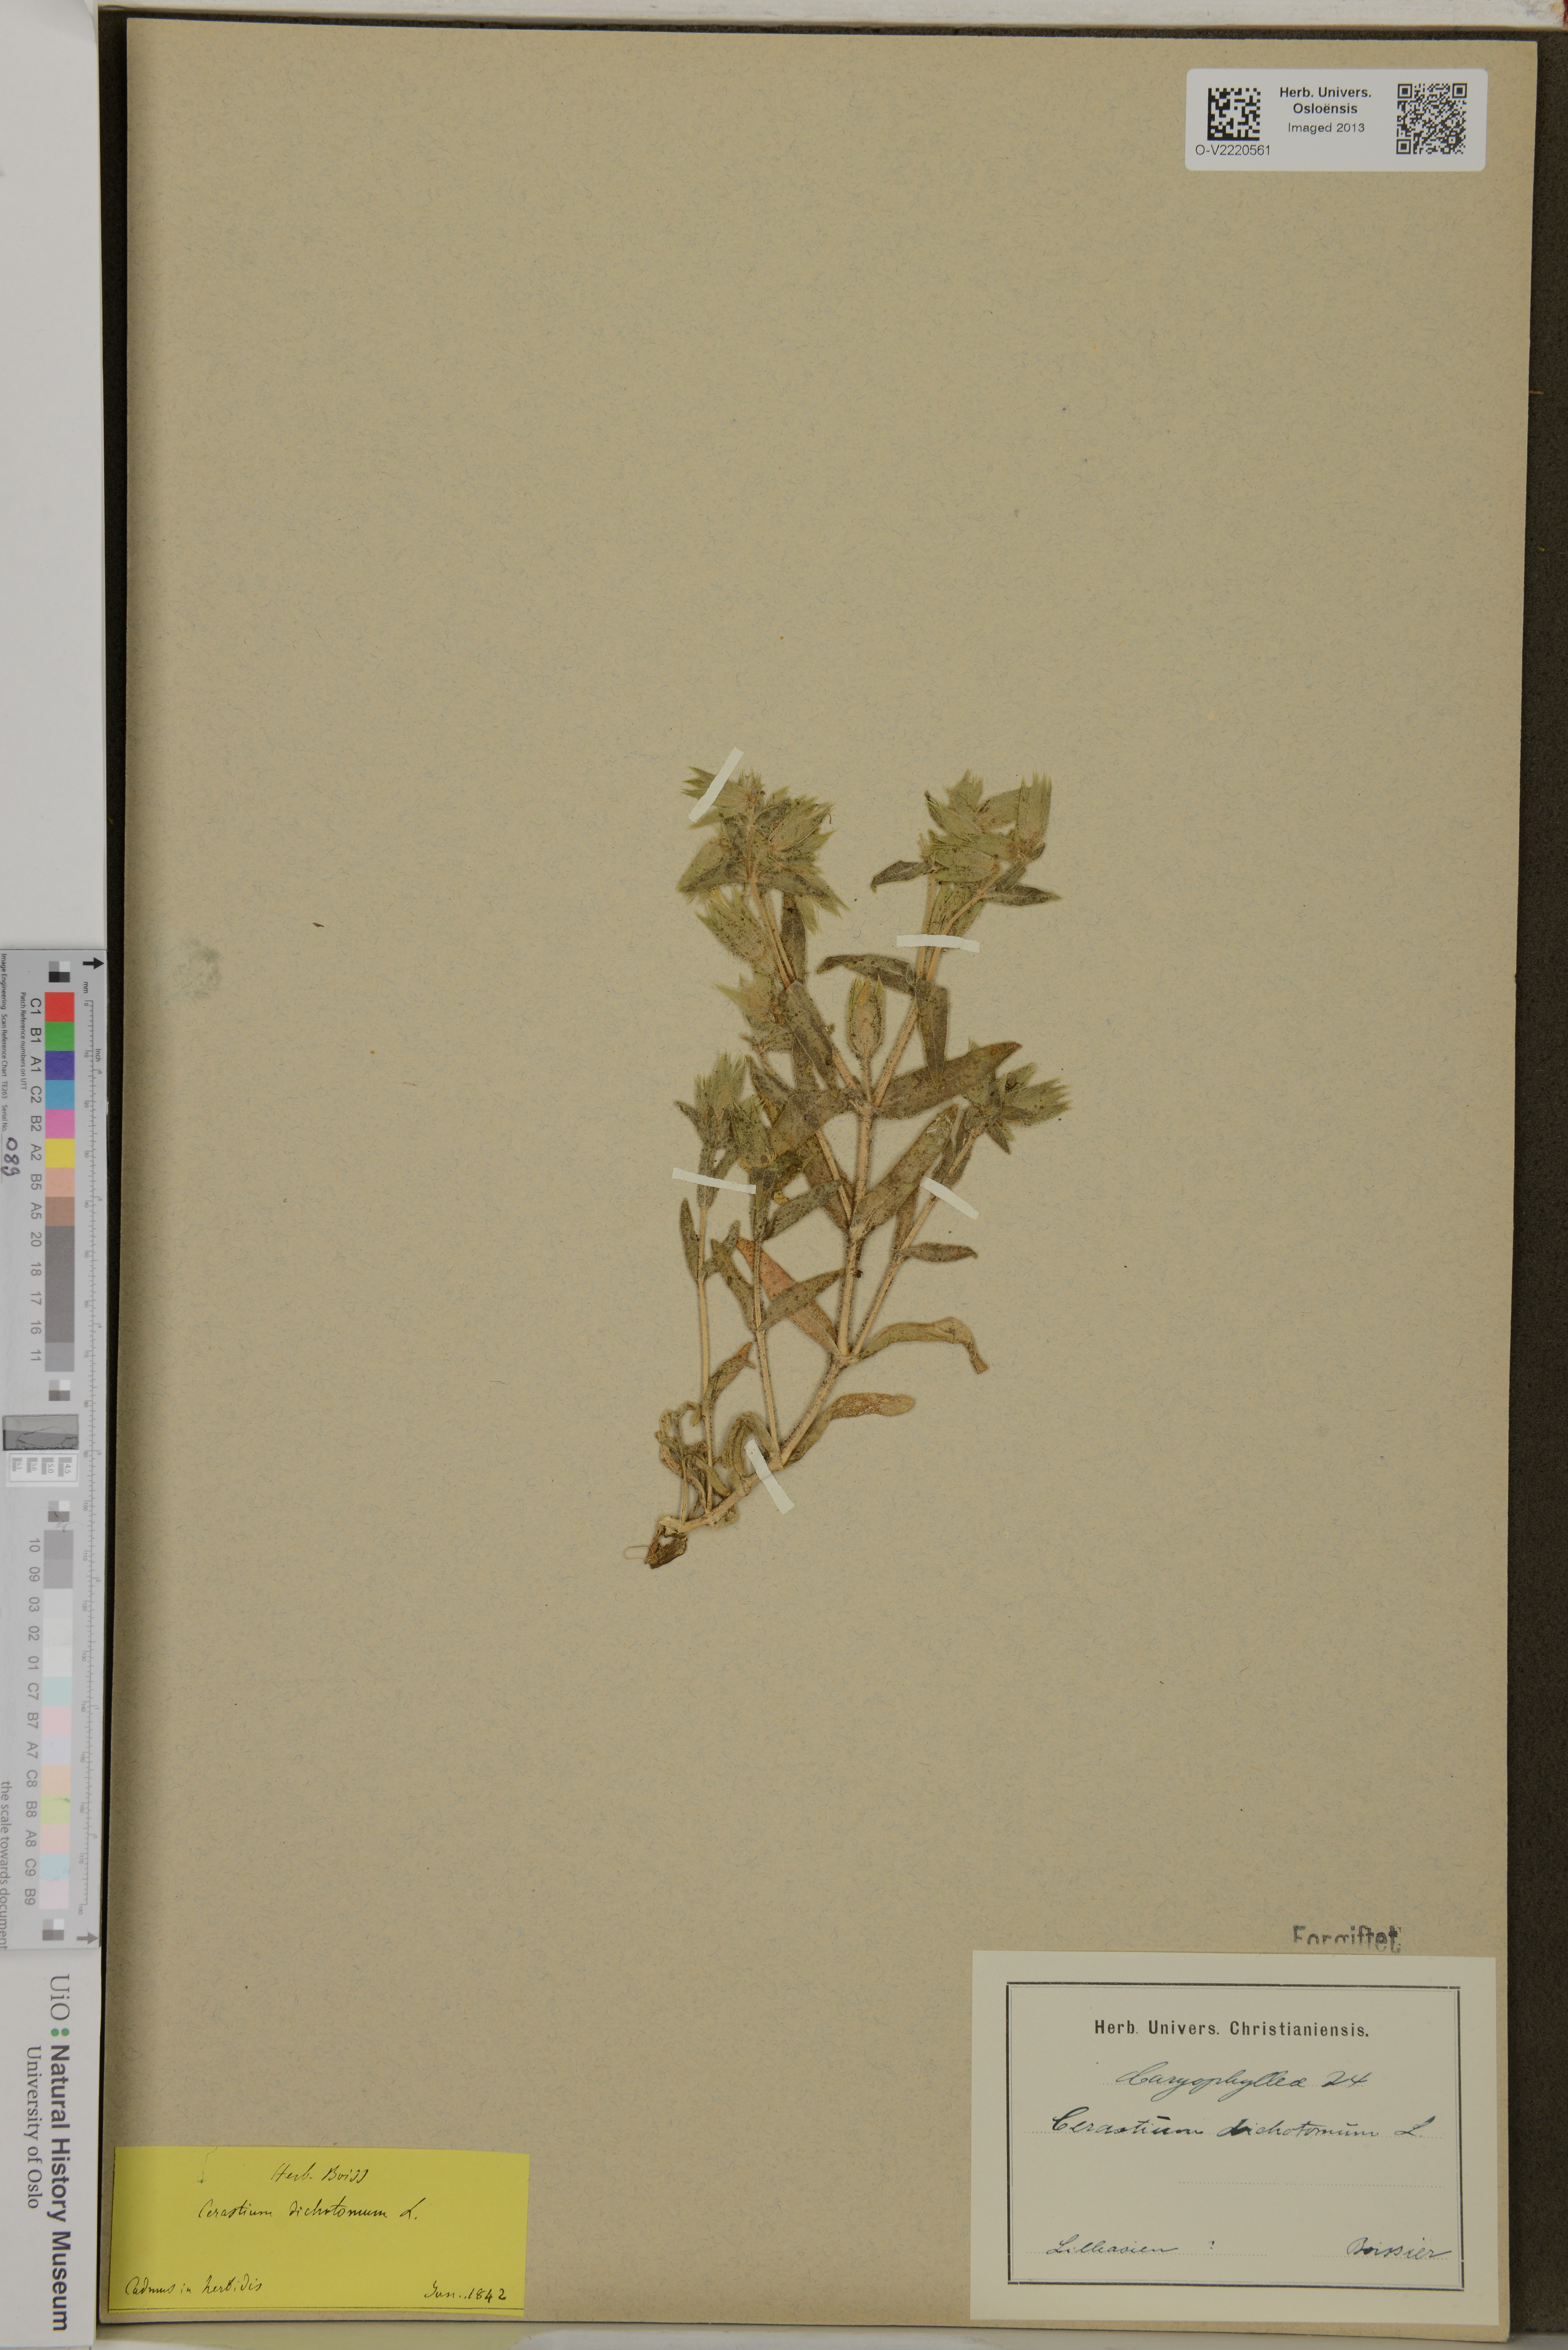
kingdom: Plantae
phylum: Tracheophyta
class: Magnoliopsida
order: Caryophyllales
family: Caryophyllaceae
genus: Cerastium
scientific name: Cerastium dichotomum
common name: Forked chickweed
